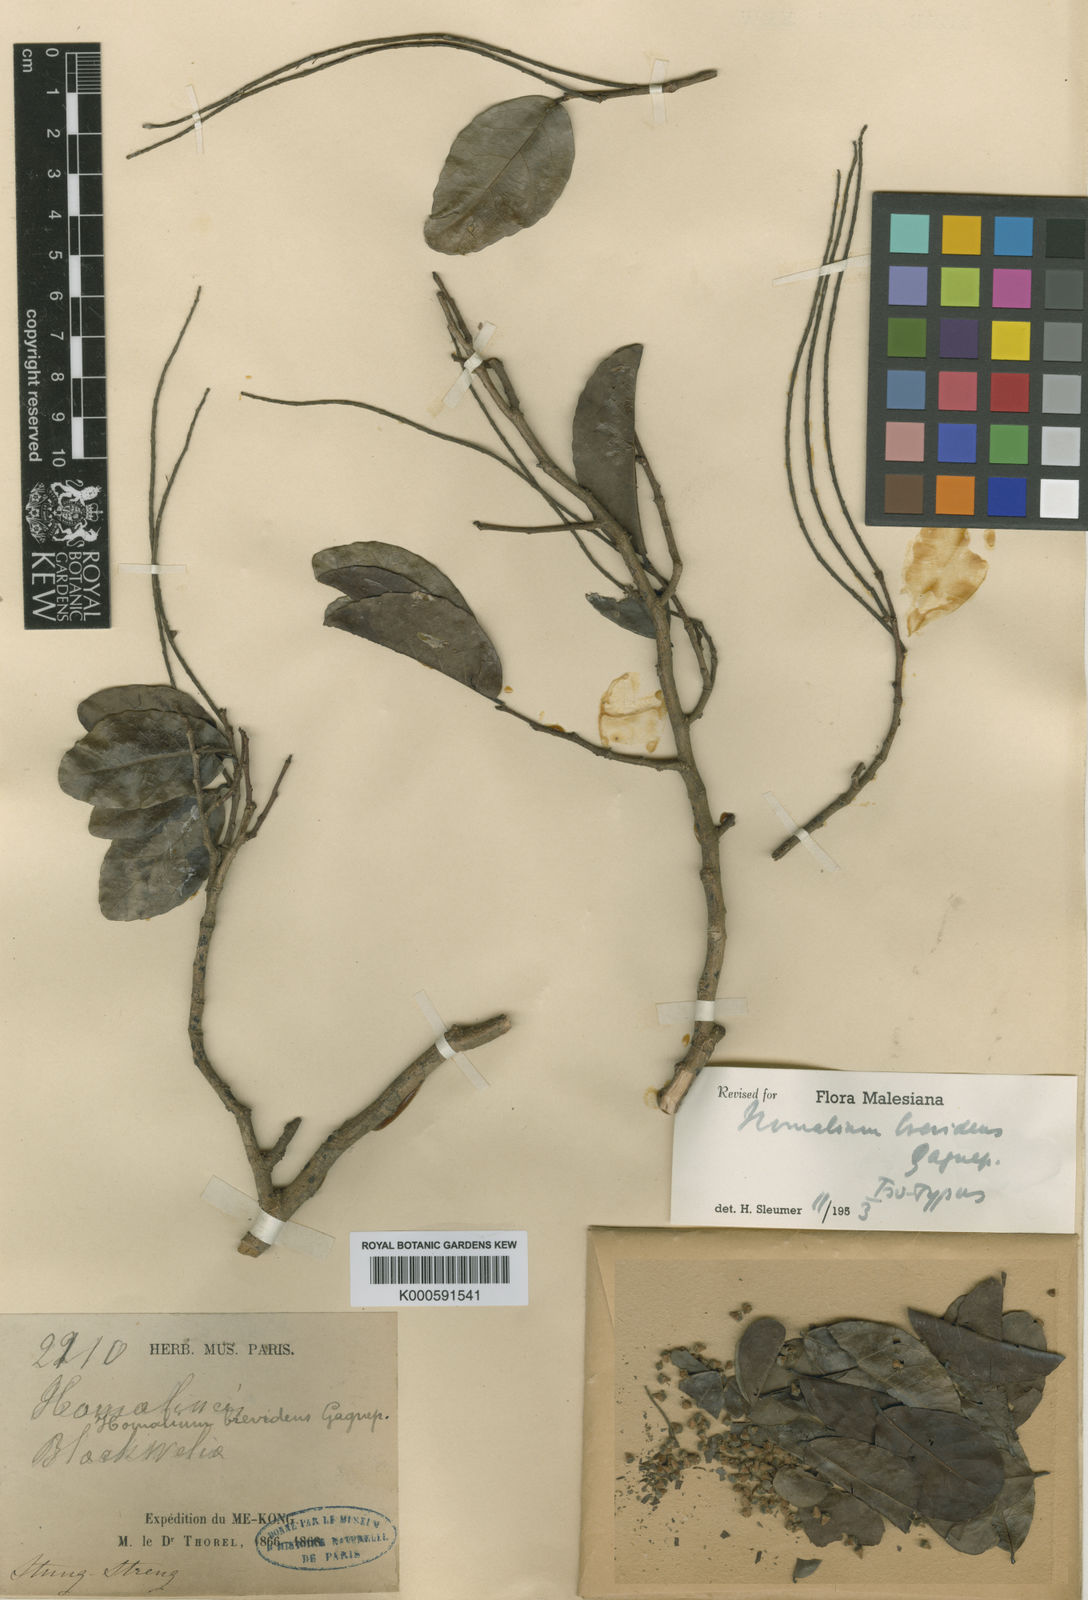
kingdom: Plantae
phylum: Tracheophyta
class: Magnoliopsida
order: Malpighiales
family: Salicaceae
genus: Homalium
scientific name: Homalium brevidens
